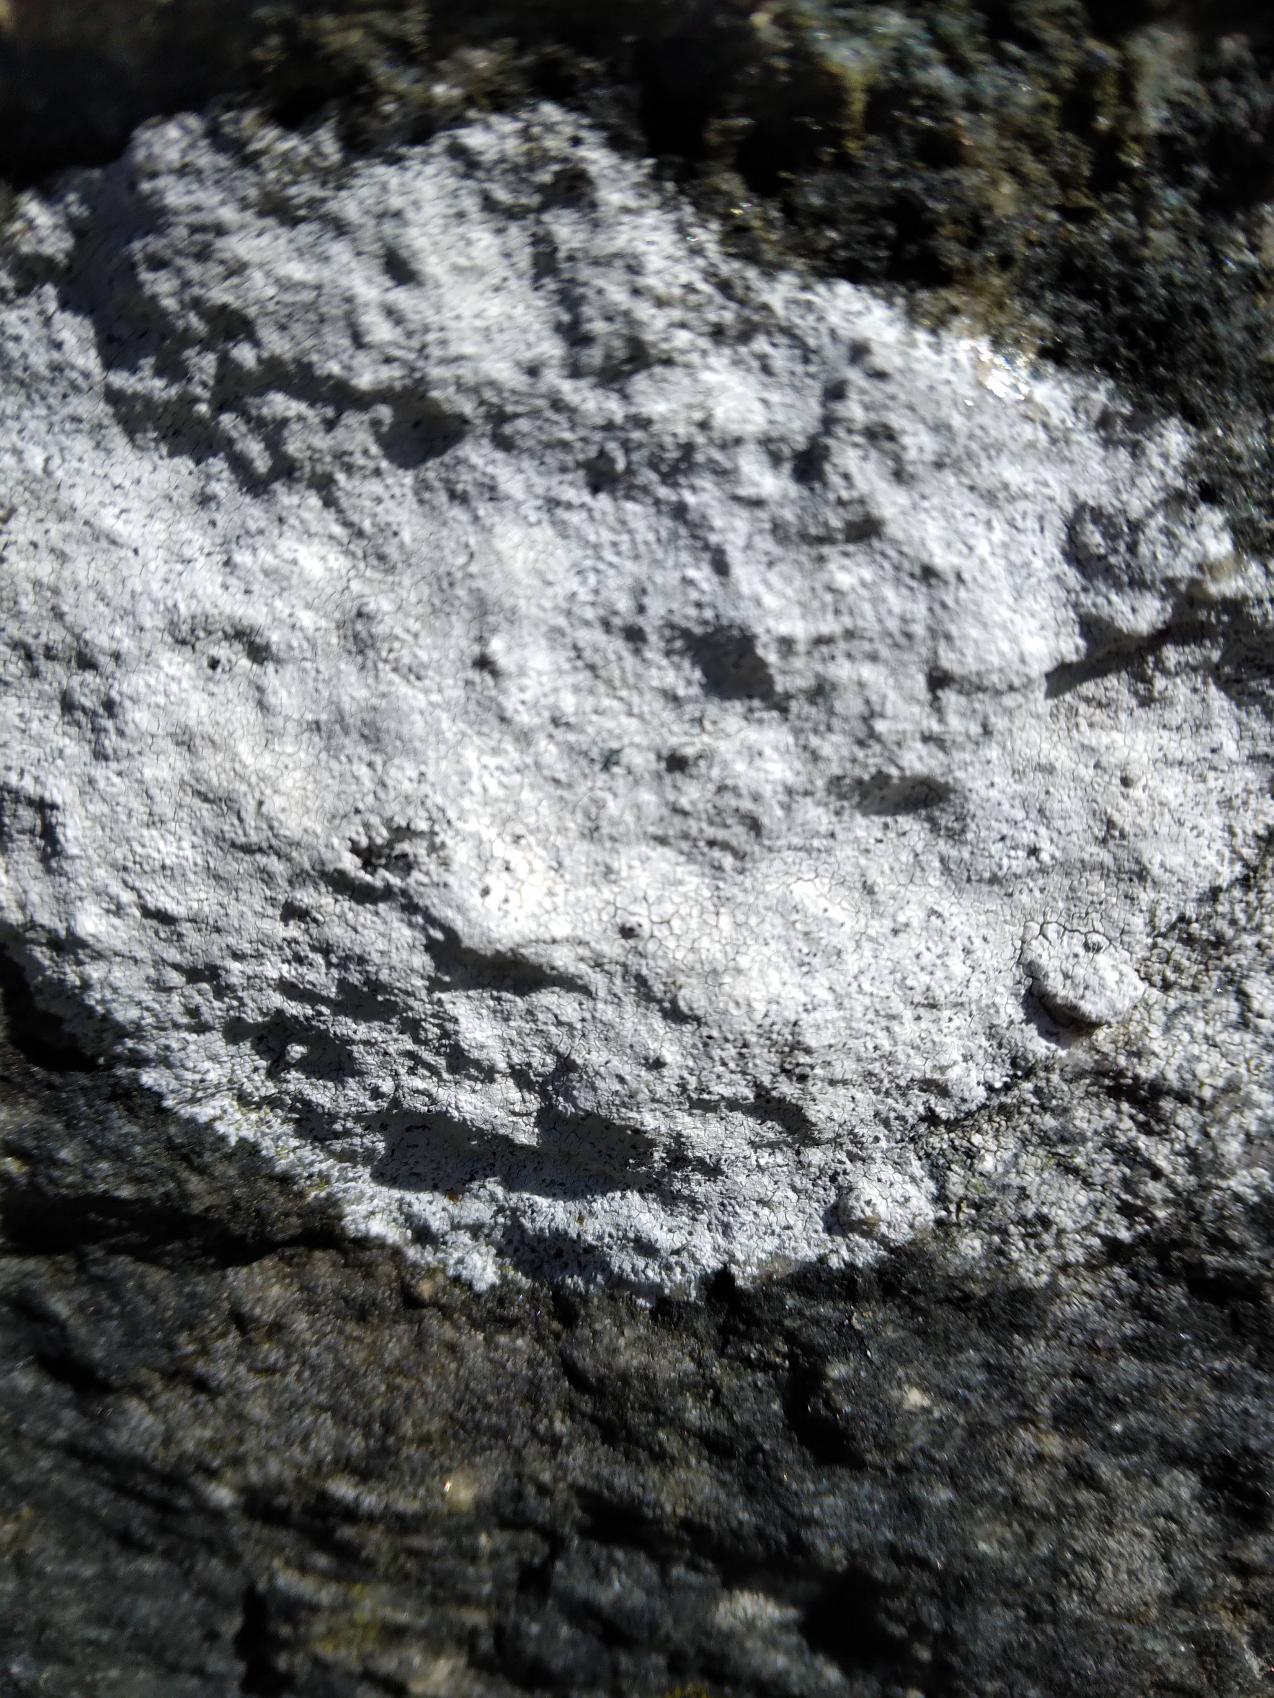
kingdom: Fungi
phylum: Ascomycota
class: Lecanoromycetes
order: Lecanorales
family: Lecanoraceae
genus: Glaucomaria
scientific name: Glaucomaria rupicola
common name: Stengærde-kantskivelav
